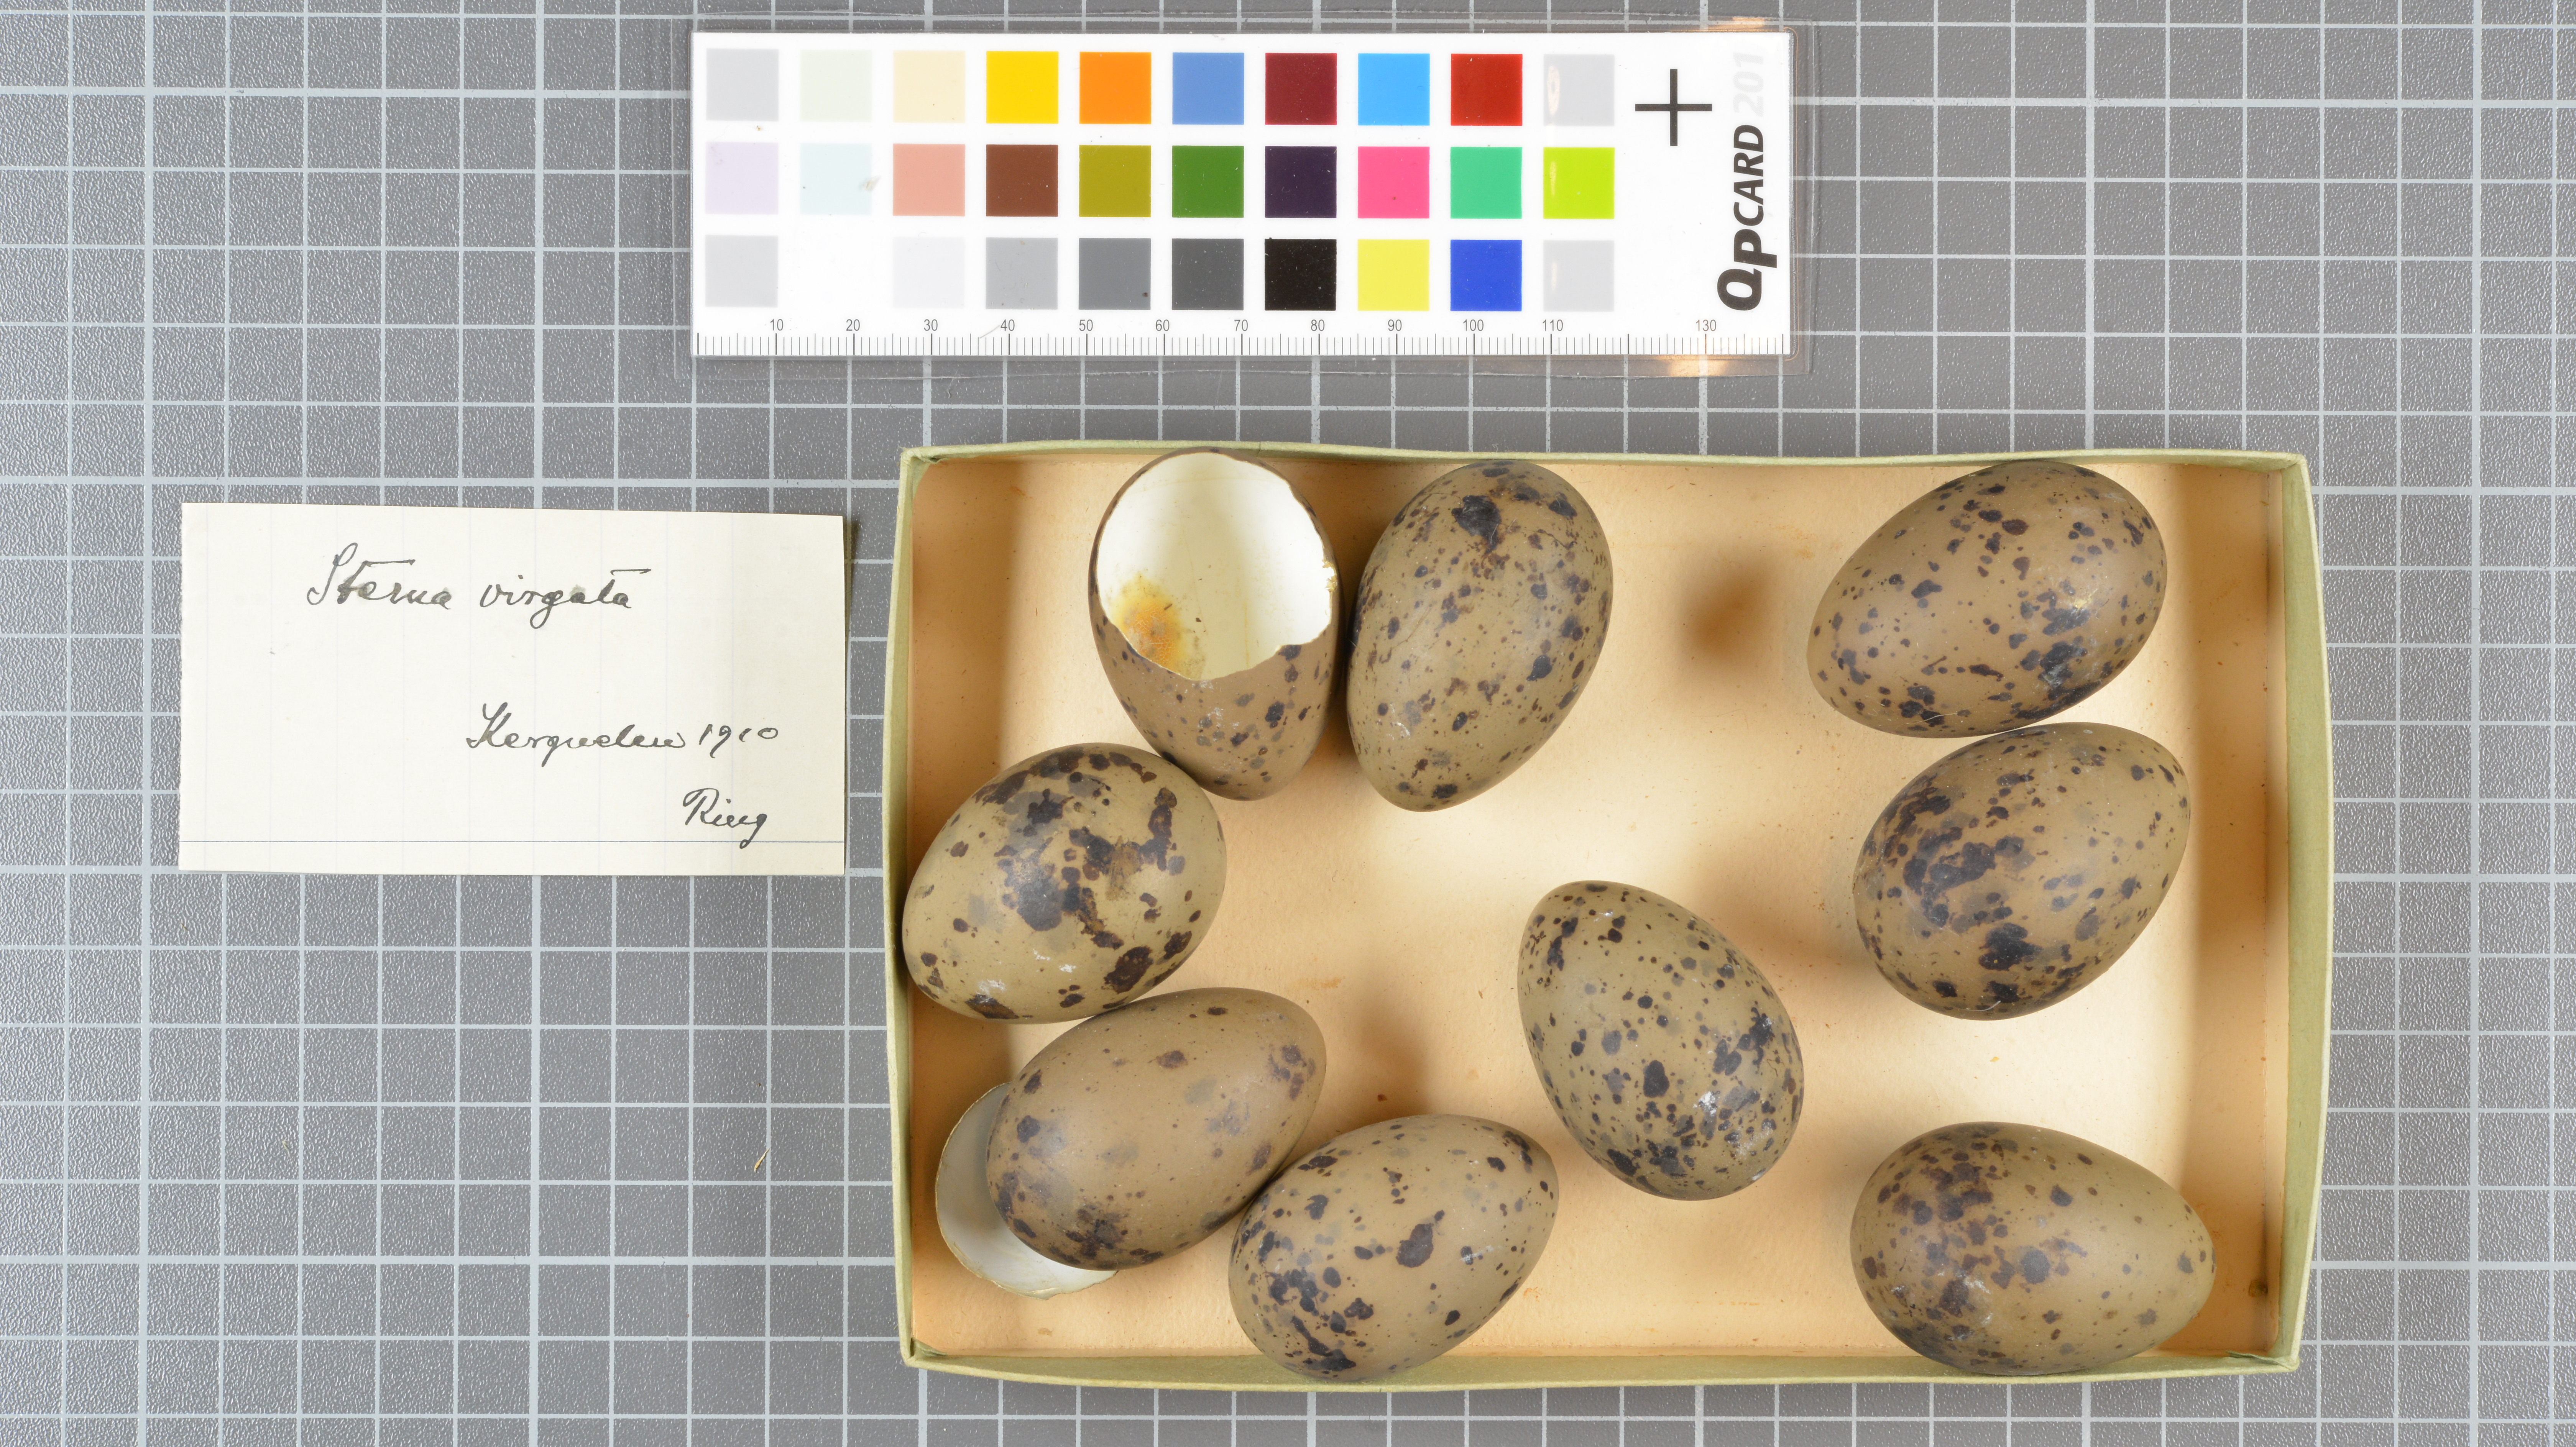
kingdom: Animalia
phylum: Chordata
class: Aves
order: Charadriiformes
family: Laridae
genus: Sterna
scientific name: Sterna virgata
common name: Kerguelen tern
